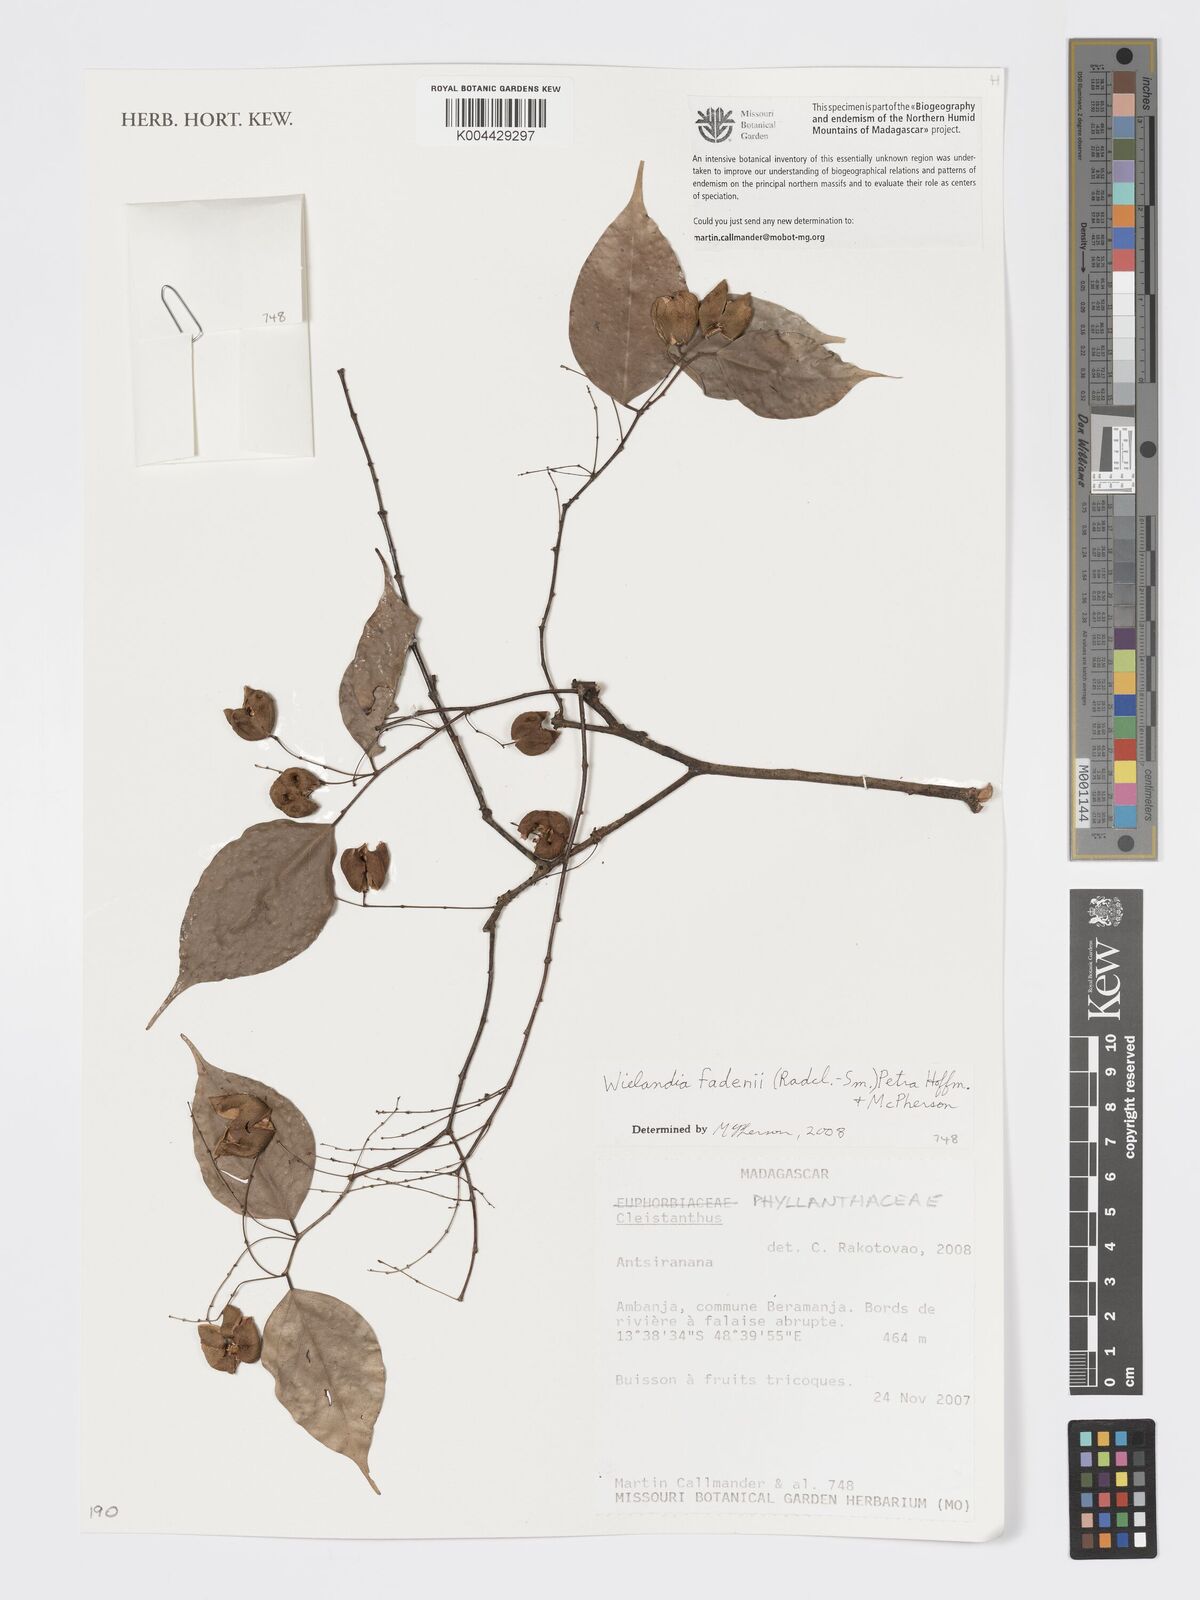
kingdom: Plantae
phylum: Tracheophyta
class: Magnoliopsida
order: Malpighiales
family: Phyllanthaceae
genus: Wielandia
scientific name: Wielandia fadenii
